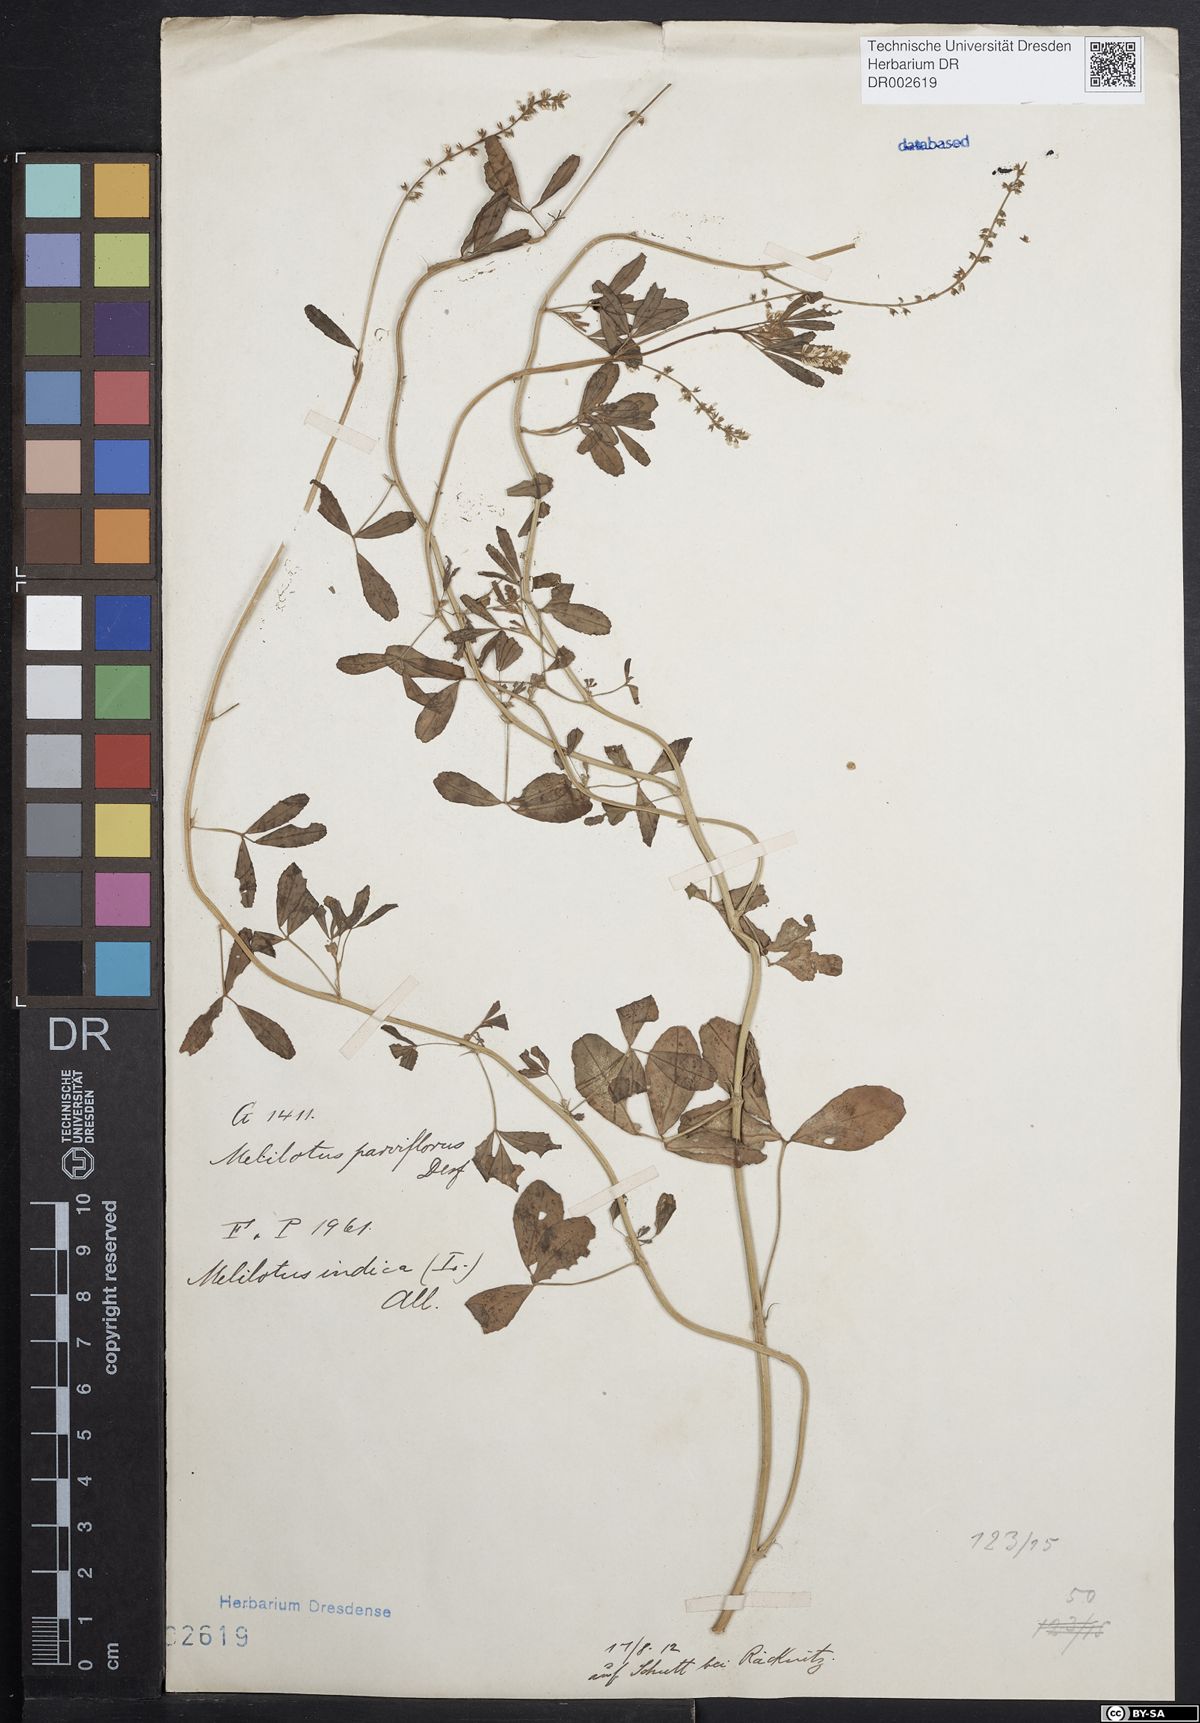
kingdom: Plantae
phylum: Tracheophyta
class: Magnoliopsida
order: Fabales
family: Fabaceae
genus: Melilotus
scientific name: Melilotus indicus
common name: Small melilot
